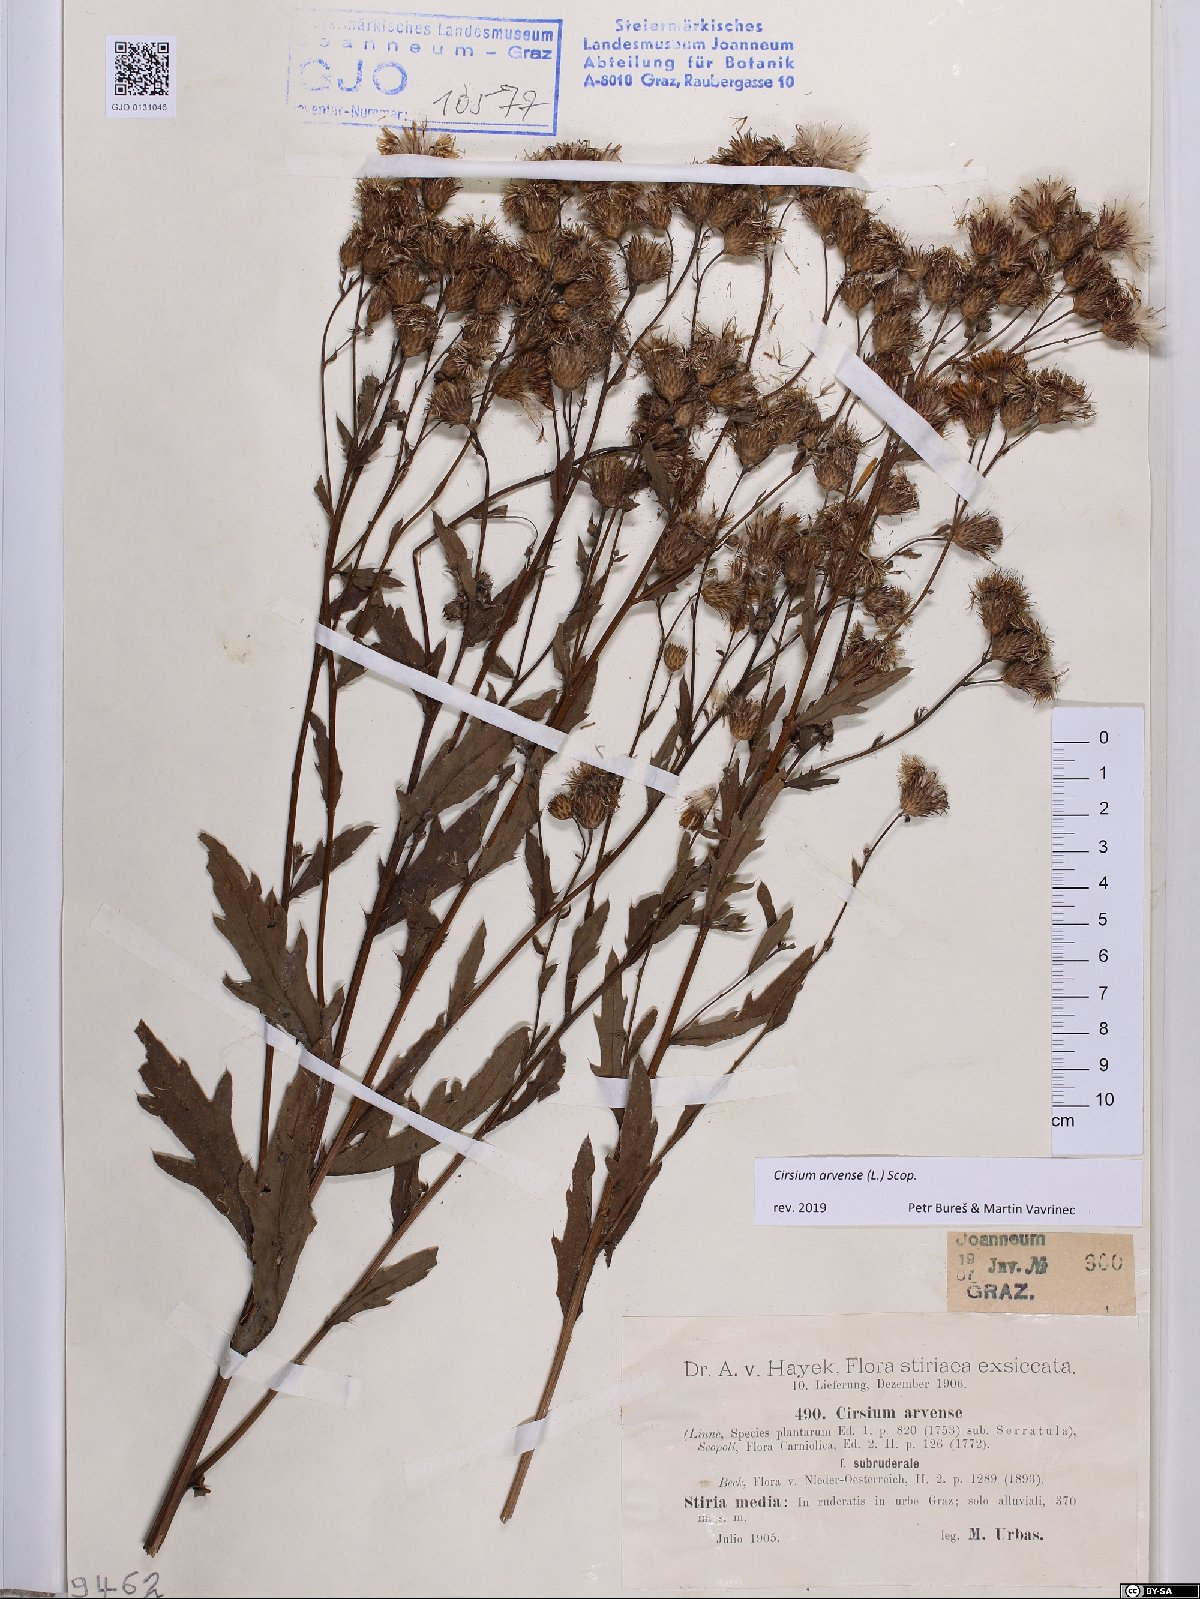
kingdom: Plantae
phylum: Tracheophyta
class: Magnoliopsida
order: Asterales
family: Asteraceae
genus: Cirsium
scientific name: Cirsium arvense
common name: Creeping thistle
